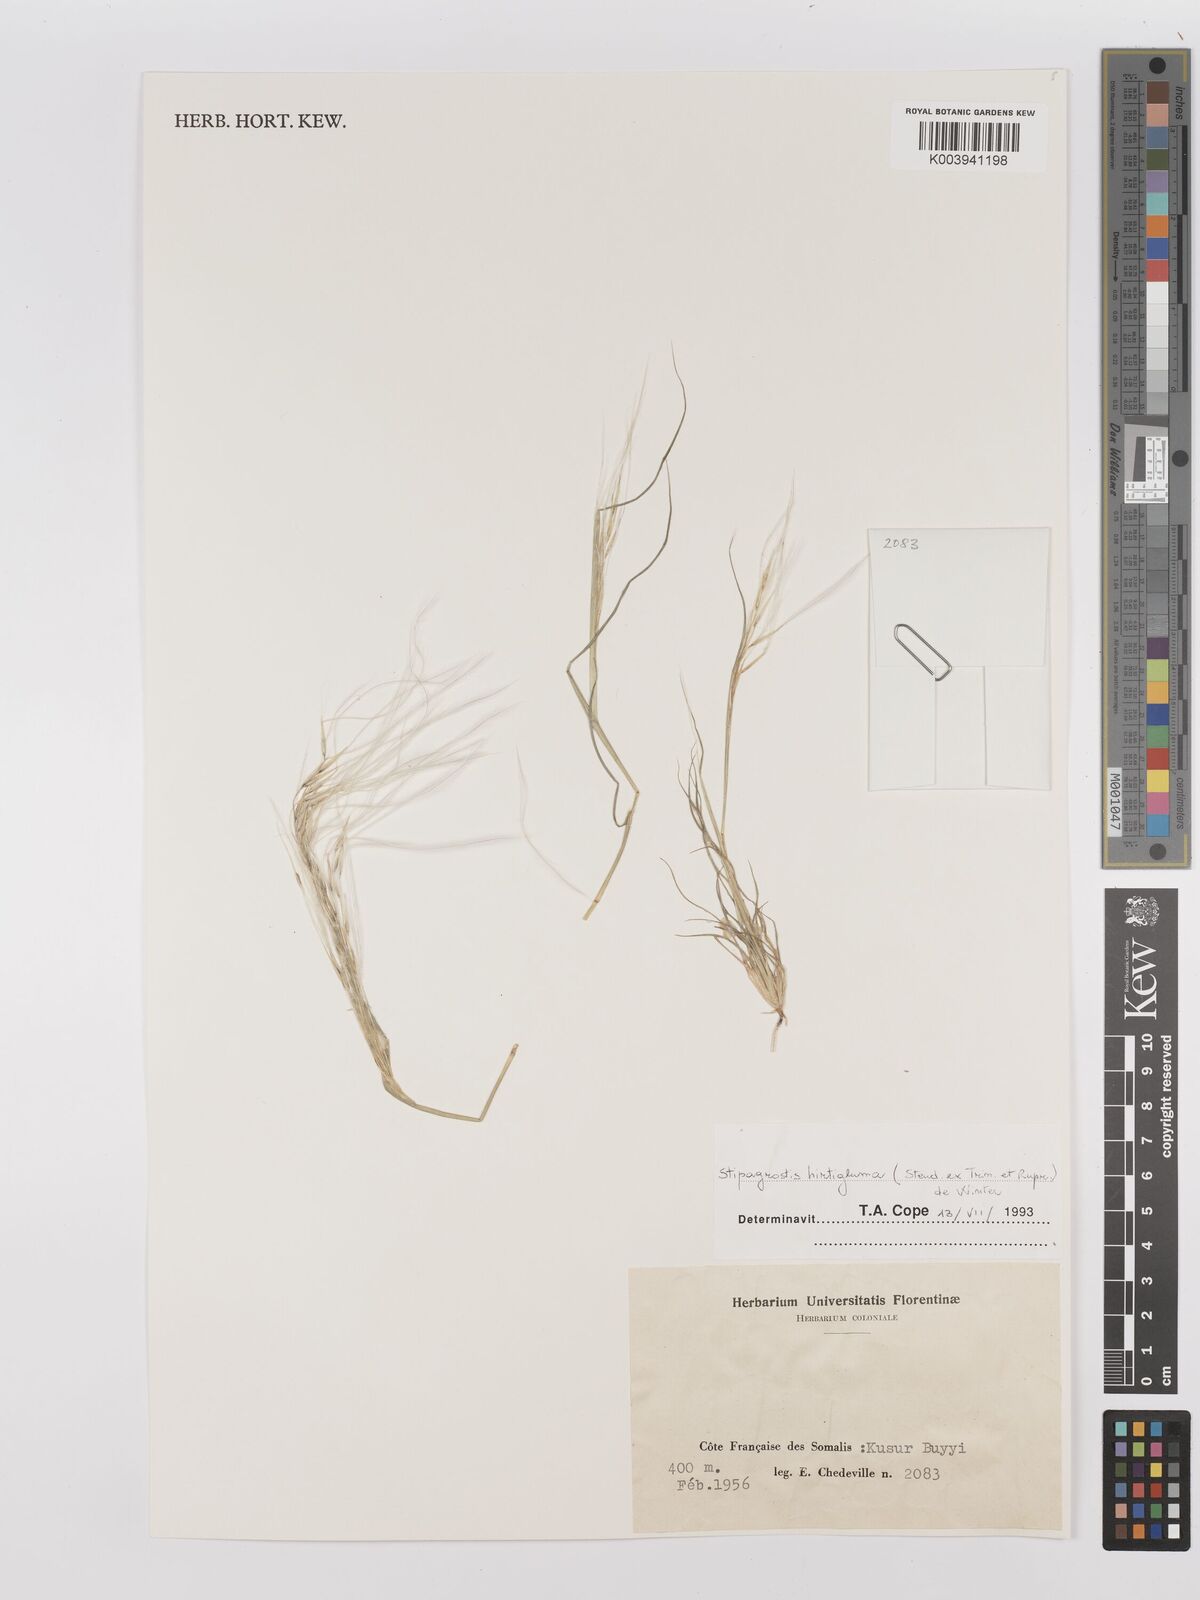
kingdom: Plantae
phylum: Tracheophyta
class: Liliopsida
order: Poales
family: Poaceae
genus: Stipagrostis
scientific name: Stipagrostis hirtigluma
